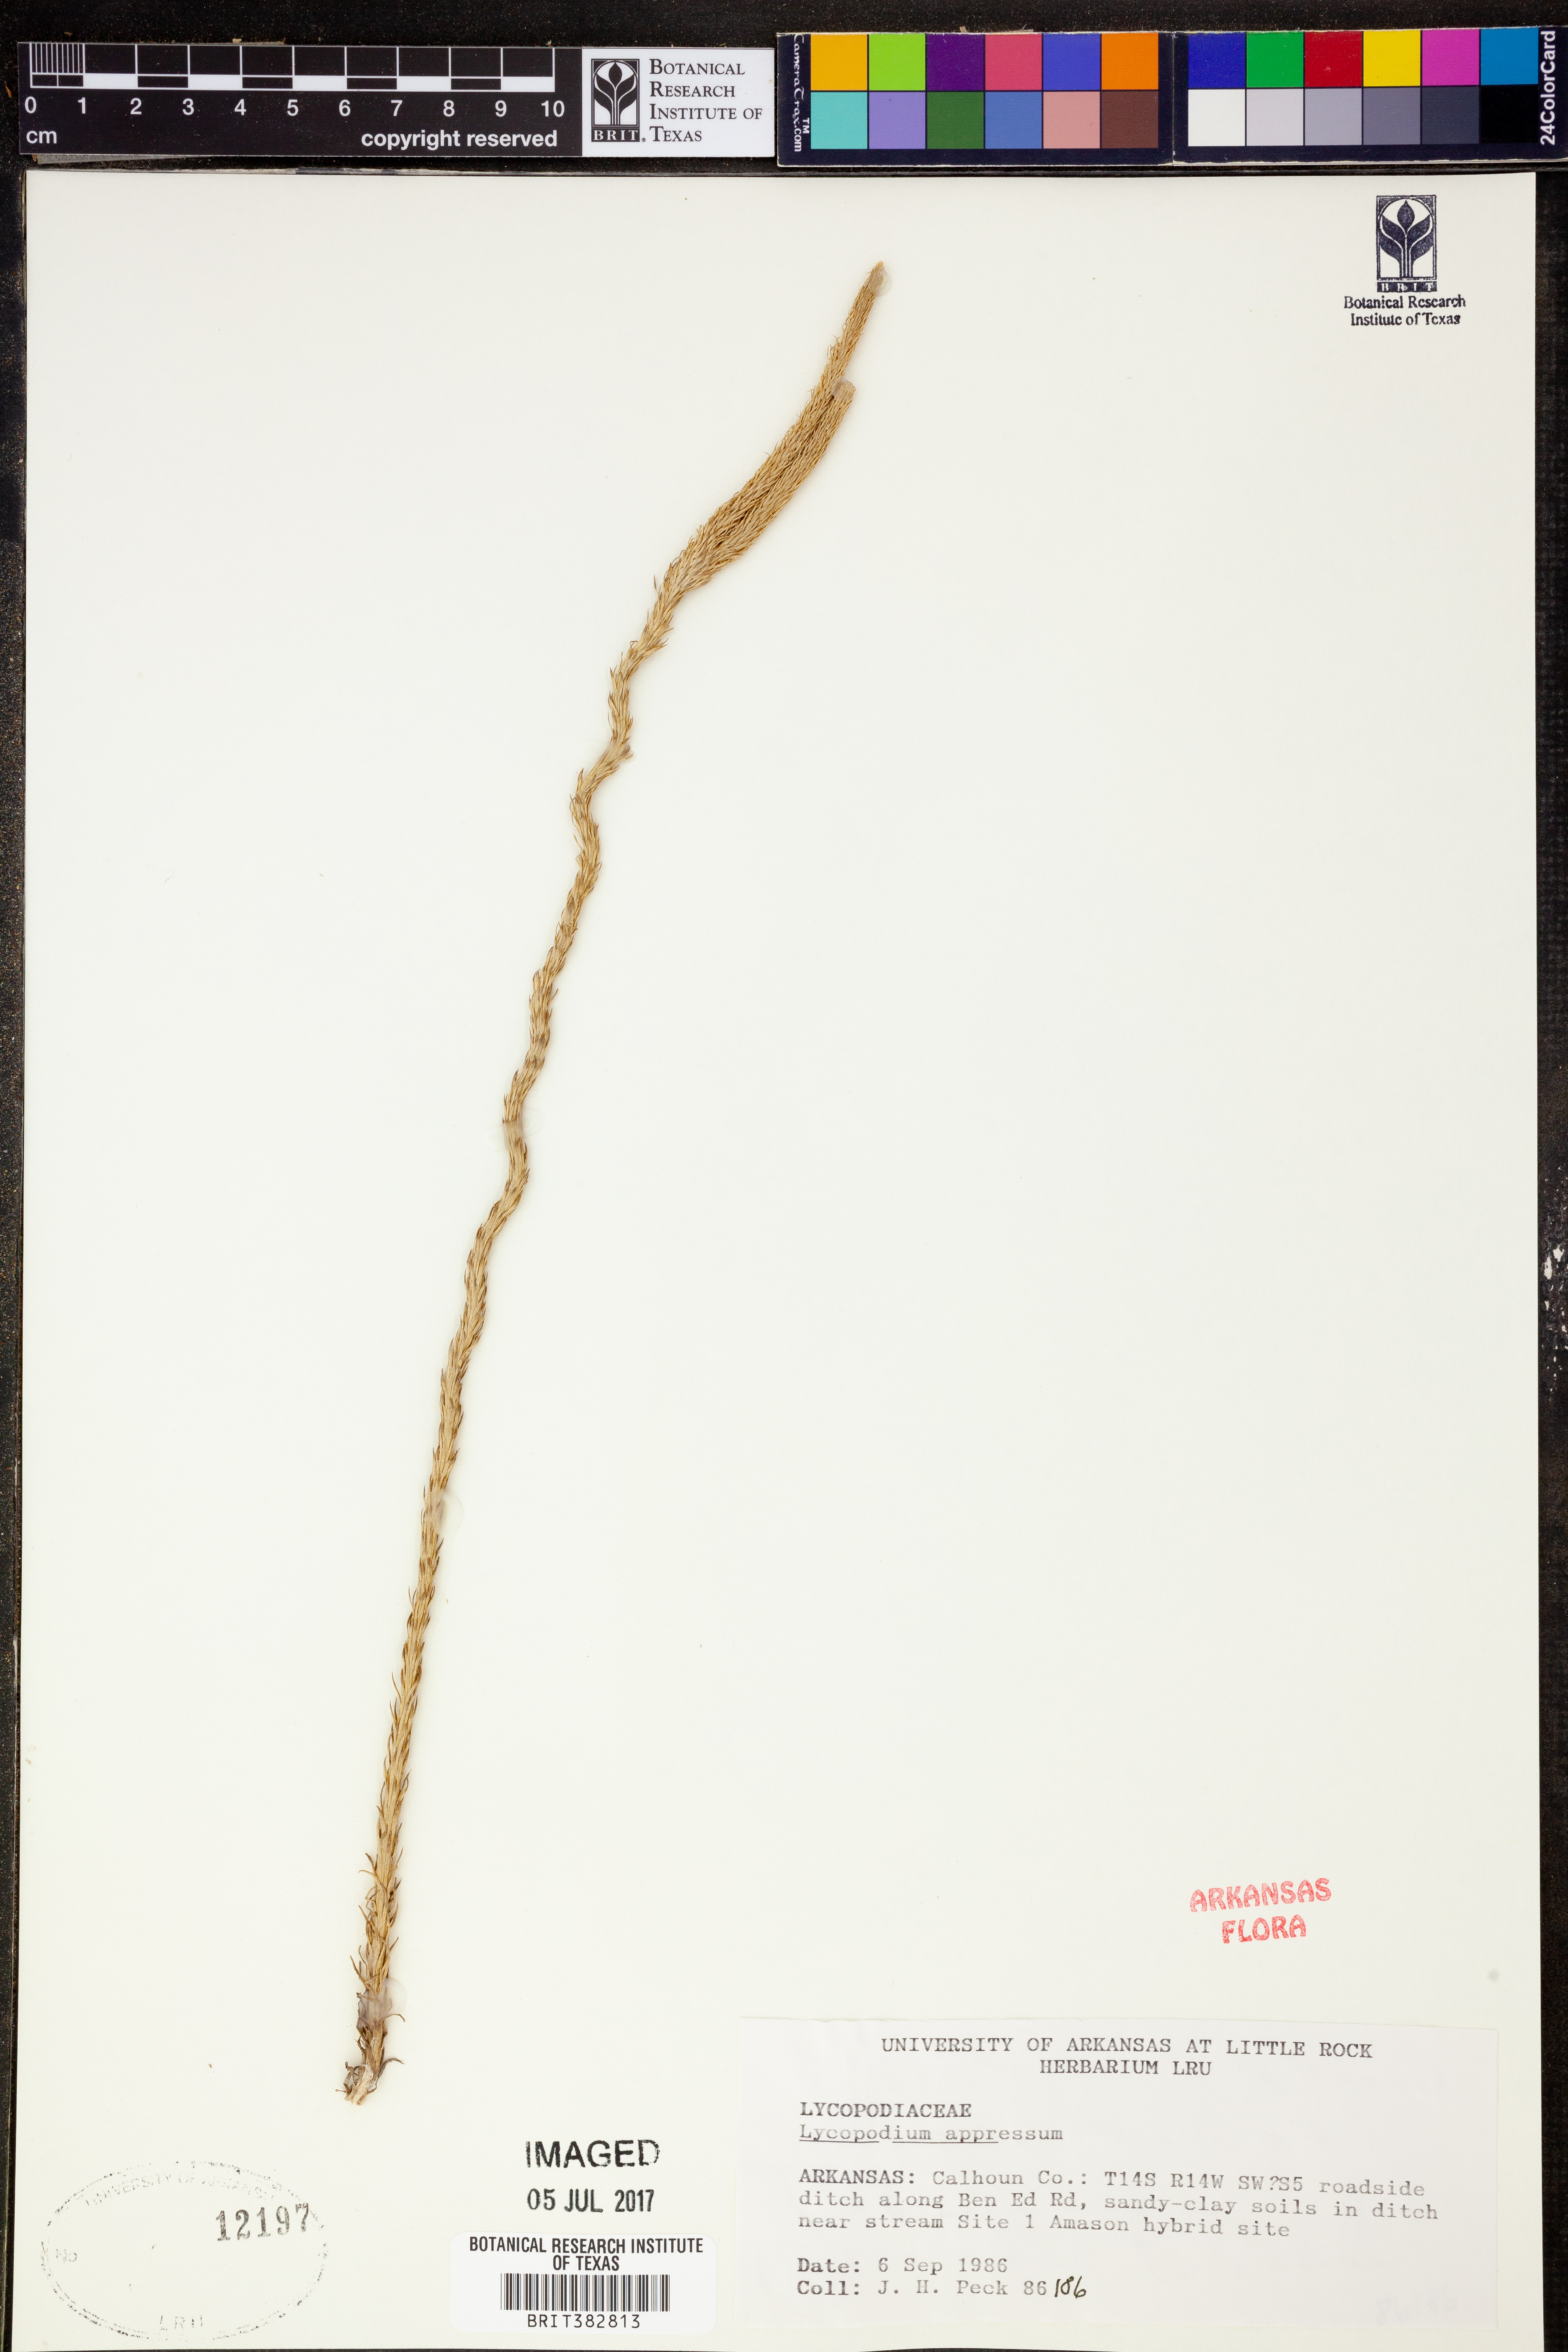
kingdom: Plantae
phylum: Tracheophyta
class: Lycopodiopsida
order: Lycopodiales
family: Lycopodiaceae
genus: Lycopodiella
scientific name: Lycopodiella appressa
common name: Appressed bog clubmoss
